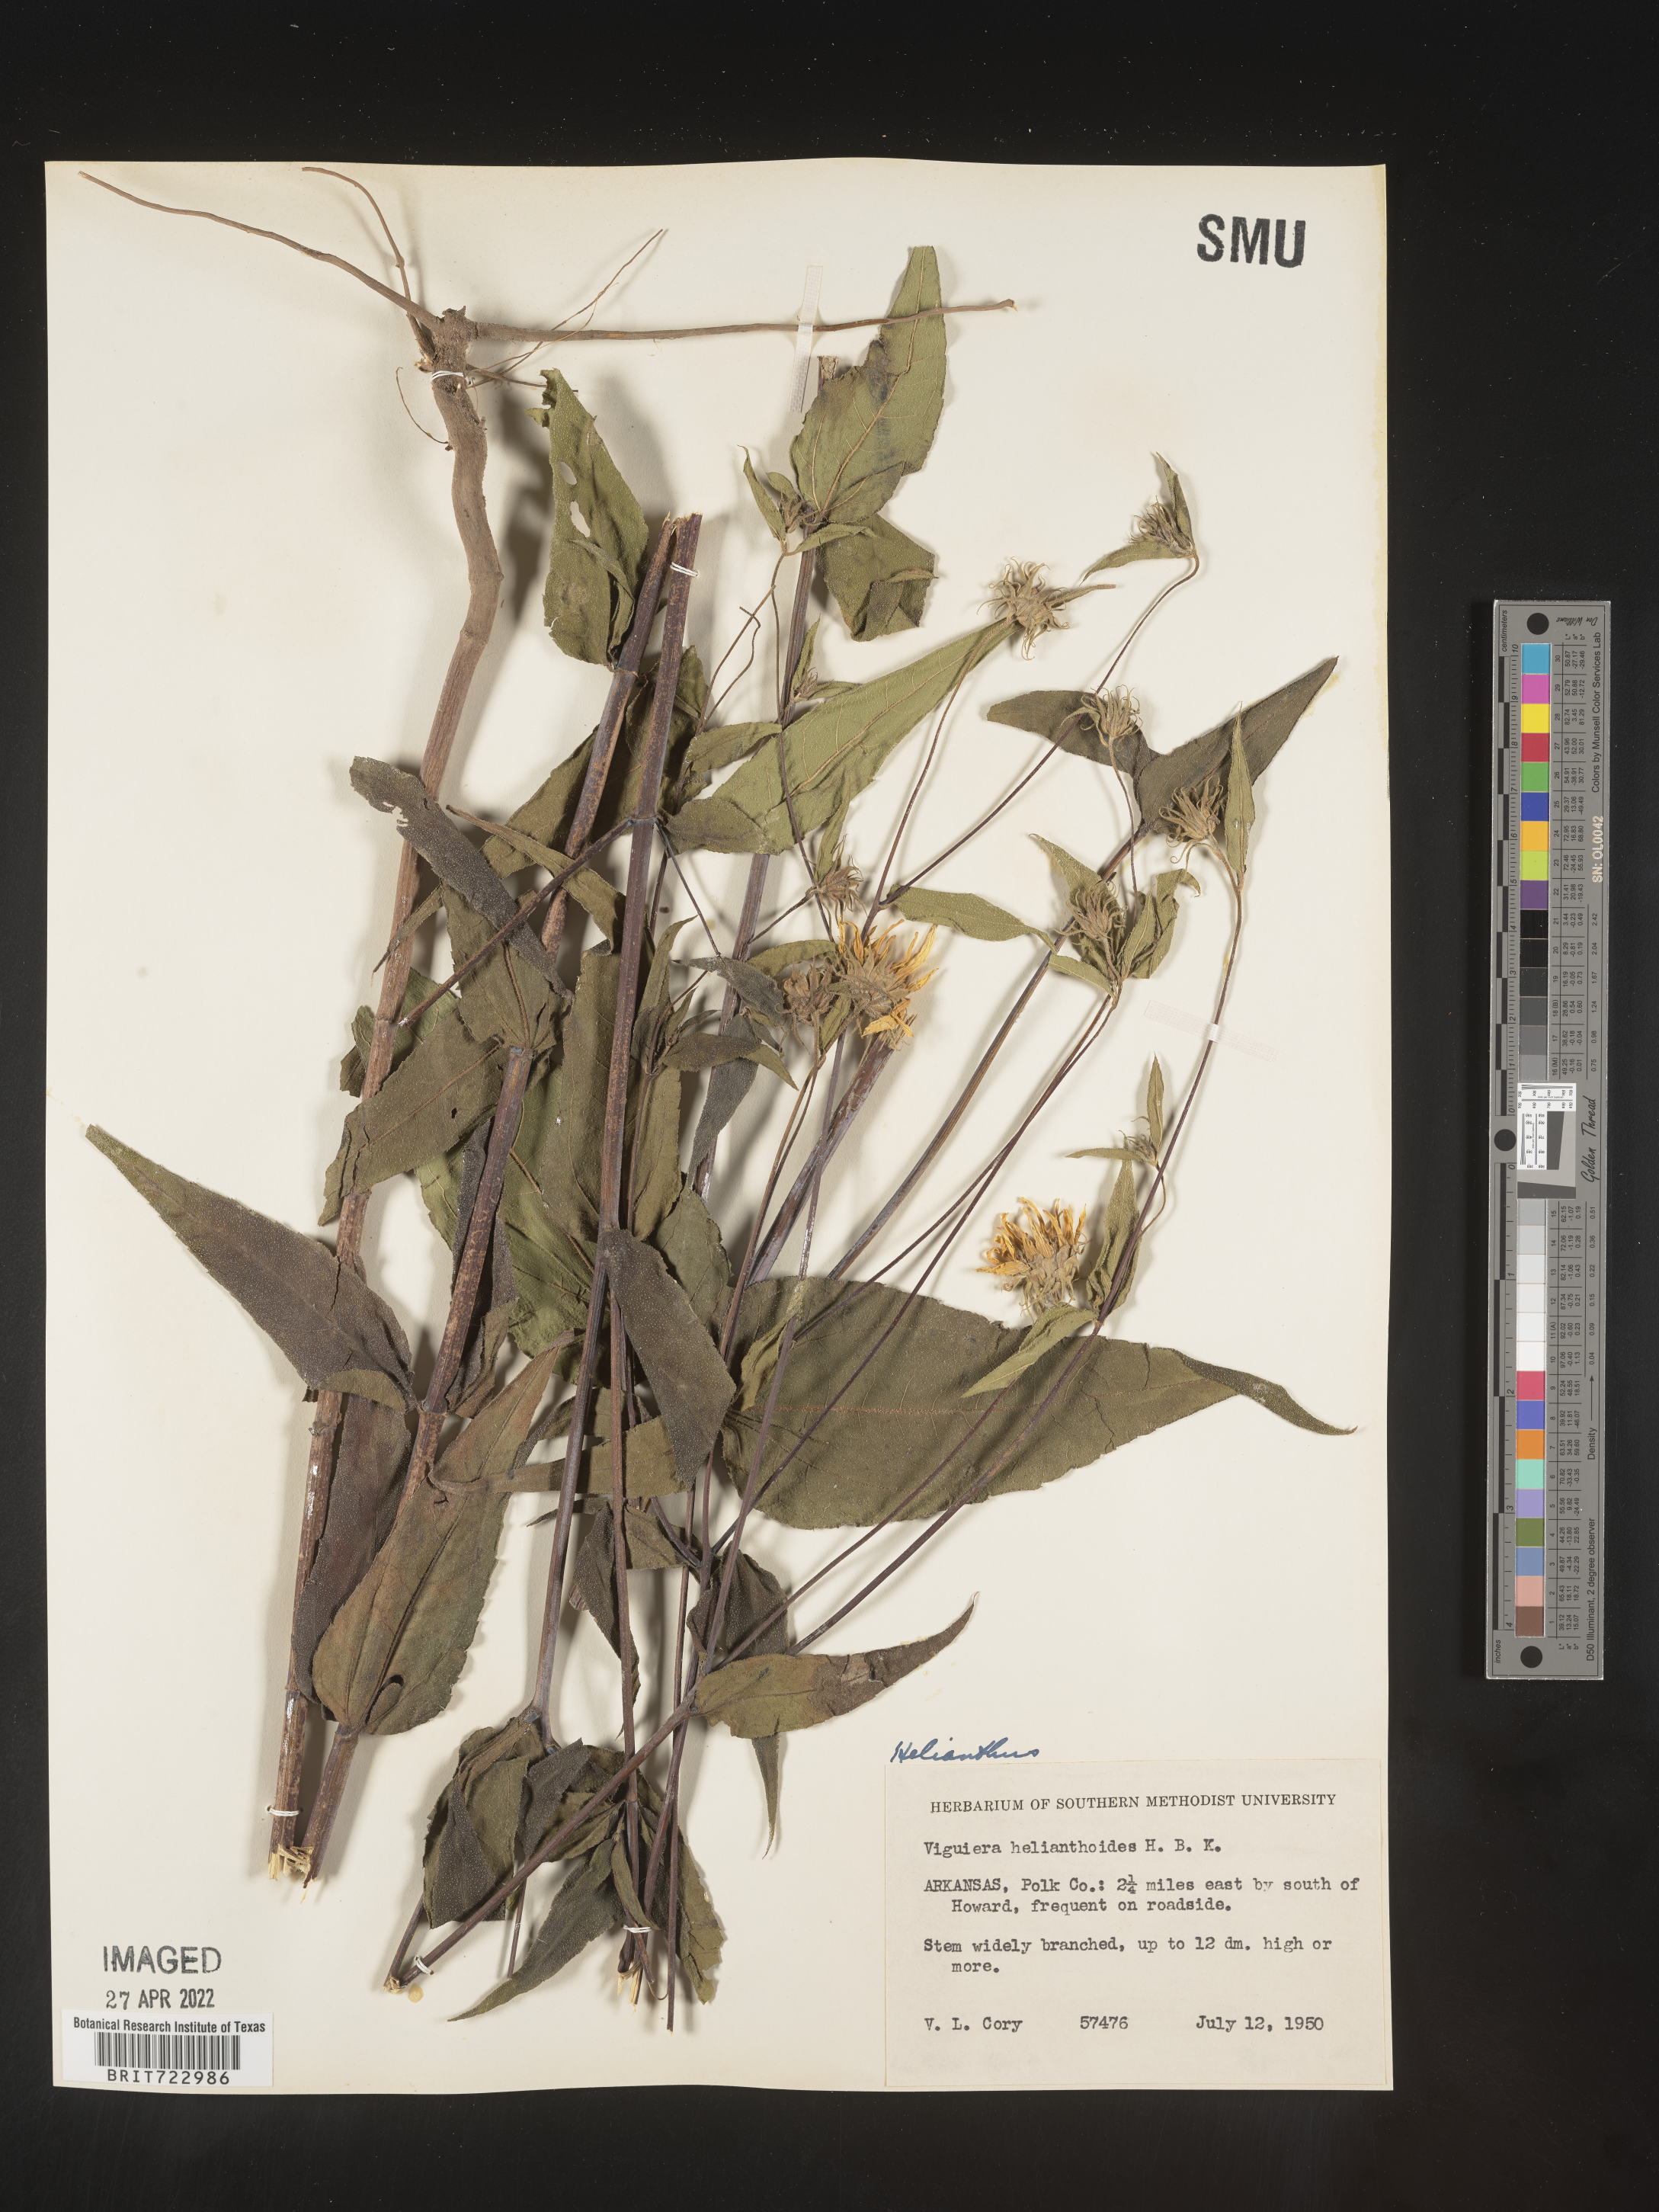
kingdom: Plantae
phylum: Tracheophyta
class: Magnoliopsida
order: Asterales
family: Asteraceae
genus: Helianthus
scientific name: Helianthus
